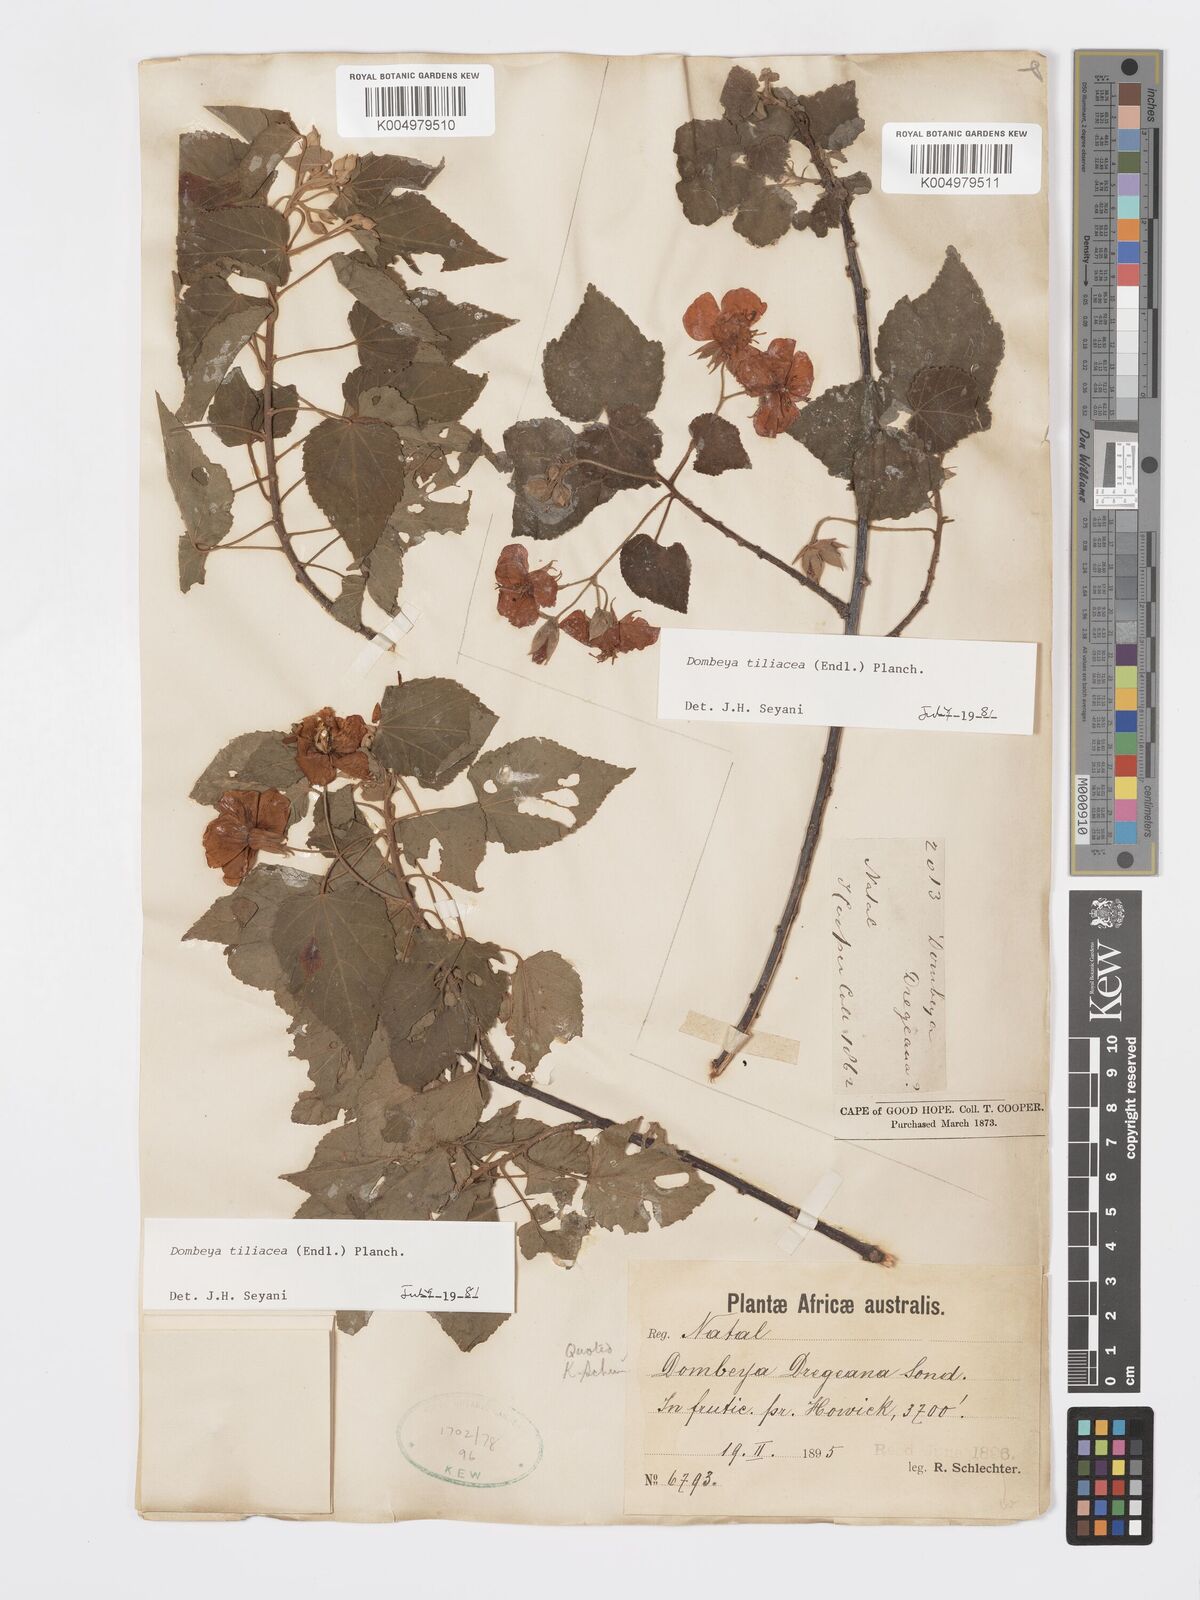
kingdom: Plantae
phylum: Tracheophyta
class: Magnoliopsida
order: Malvales
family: Malvaceae
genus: Dombeya
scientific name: Dombeya tiliacea
